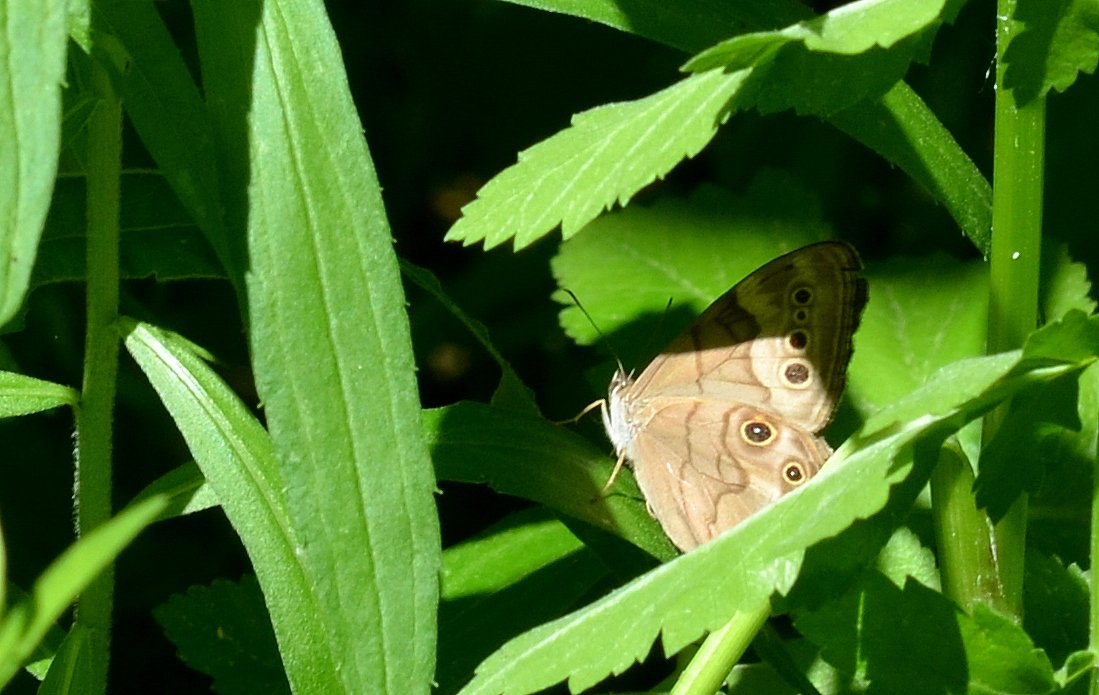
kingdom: Animalia
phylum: Arthropoda
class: Insecta
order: Lepidoptera
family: Nymphalidae
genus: Lethe
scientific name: Lethe anthedon
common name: Northern Pearly-Eye
